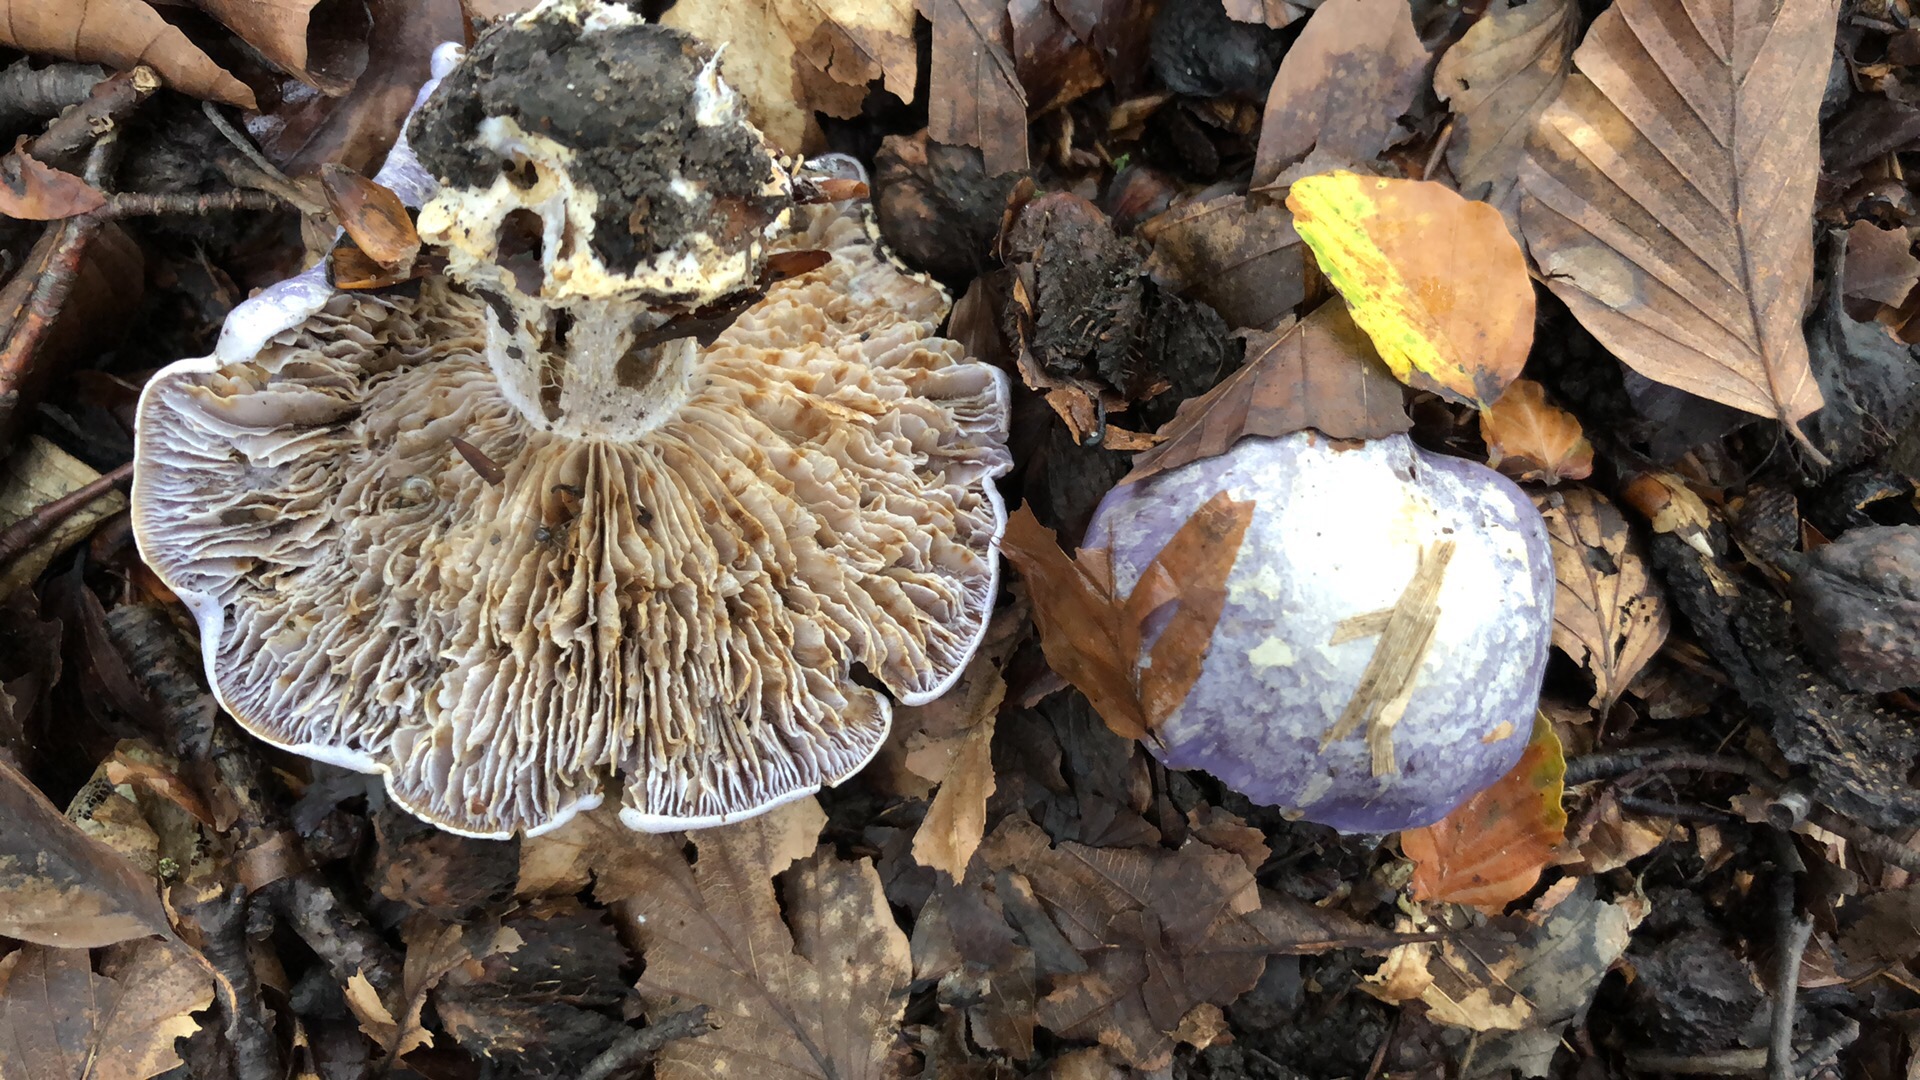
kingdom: Fungi
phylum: Basidiomycota
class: Agaricomycetes
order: Agaricales
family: Cortinariaceae
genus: Cortinarius
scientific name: Cortinarius caerulescens
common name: blåkødet slørhat
